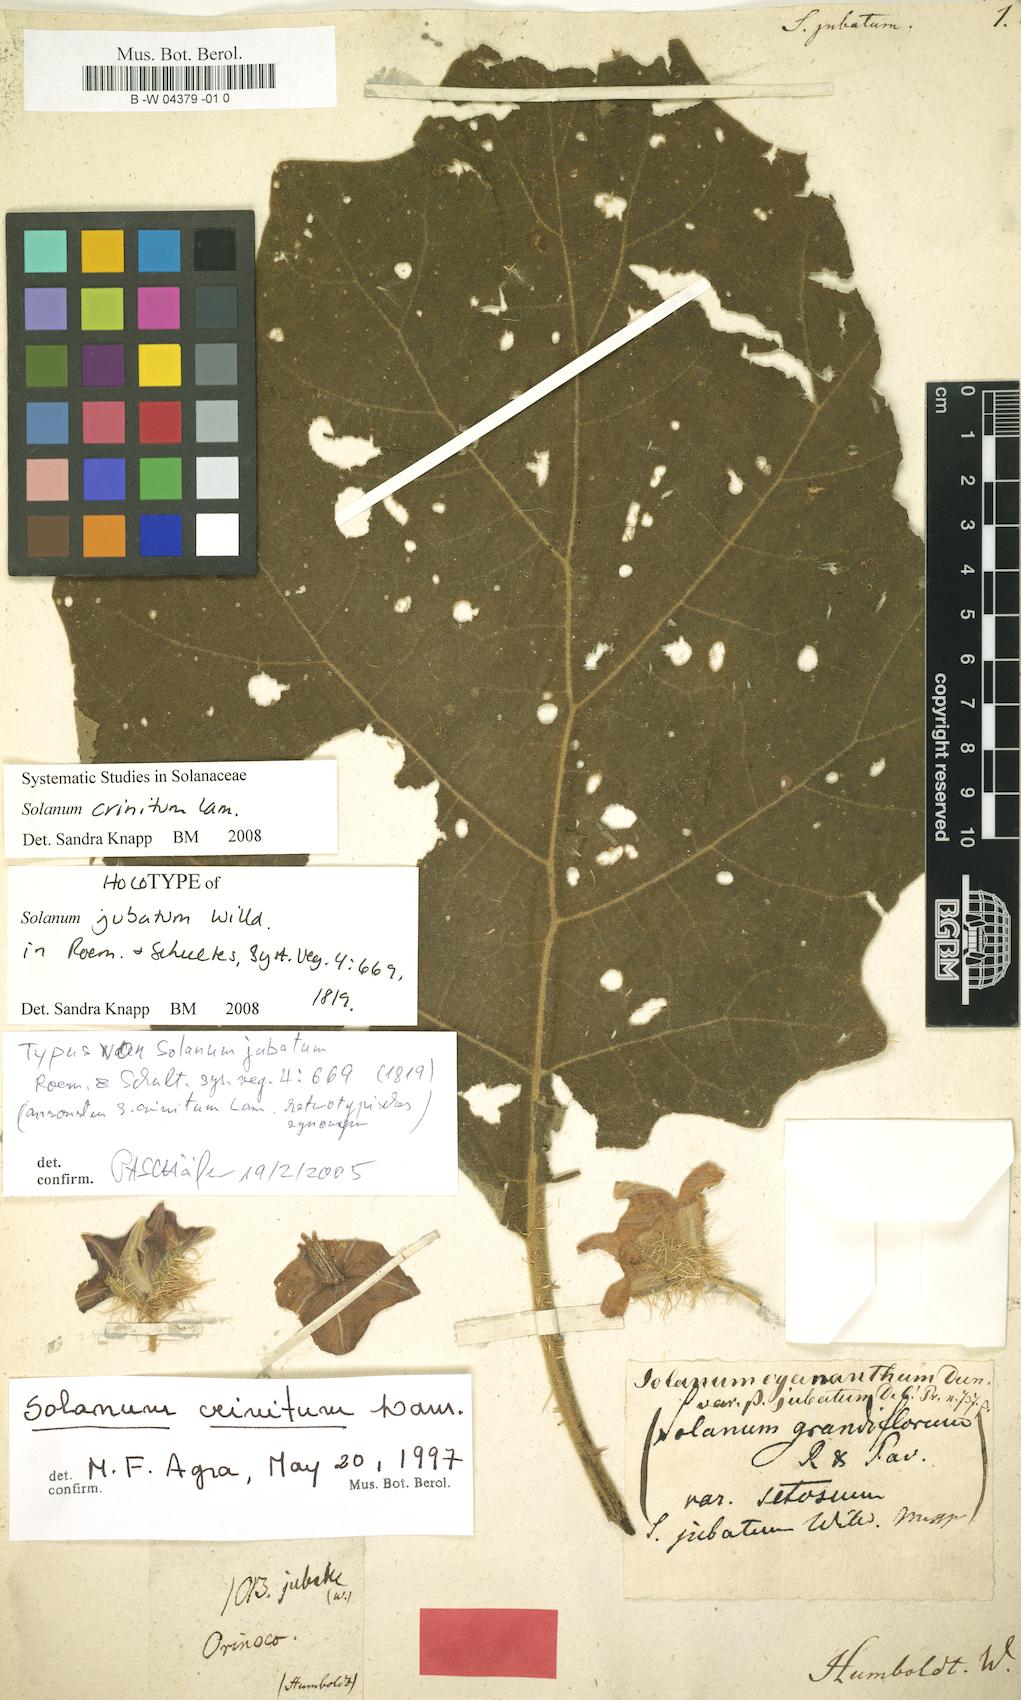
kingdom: Plantae
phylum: Tracheophyta
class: Magnoliopsida
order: Solanales
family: Solanaceae
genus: Solanum
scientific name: Solanum crinitum
